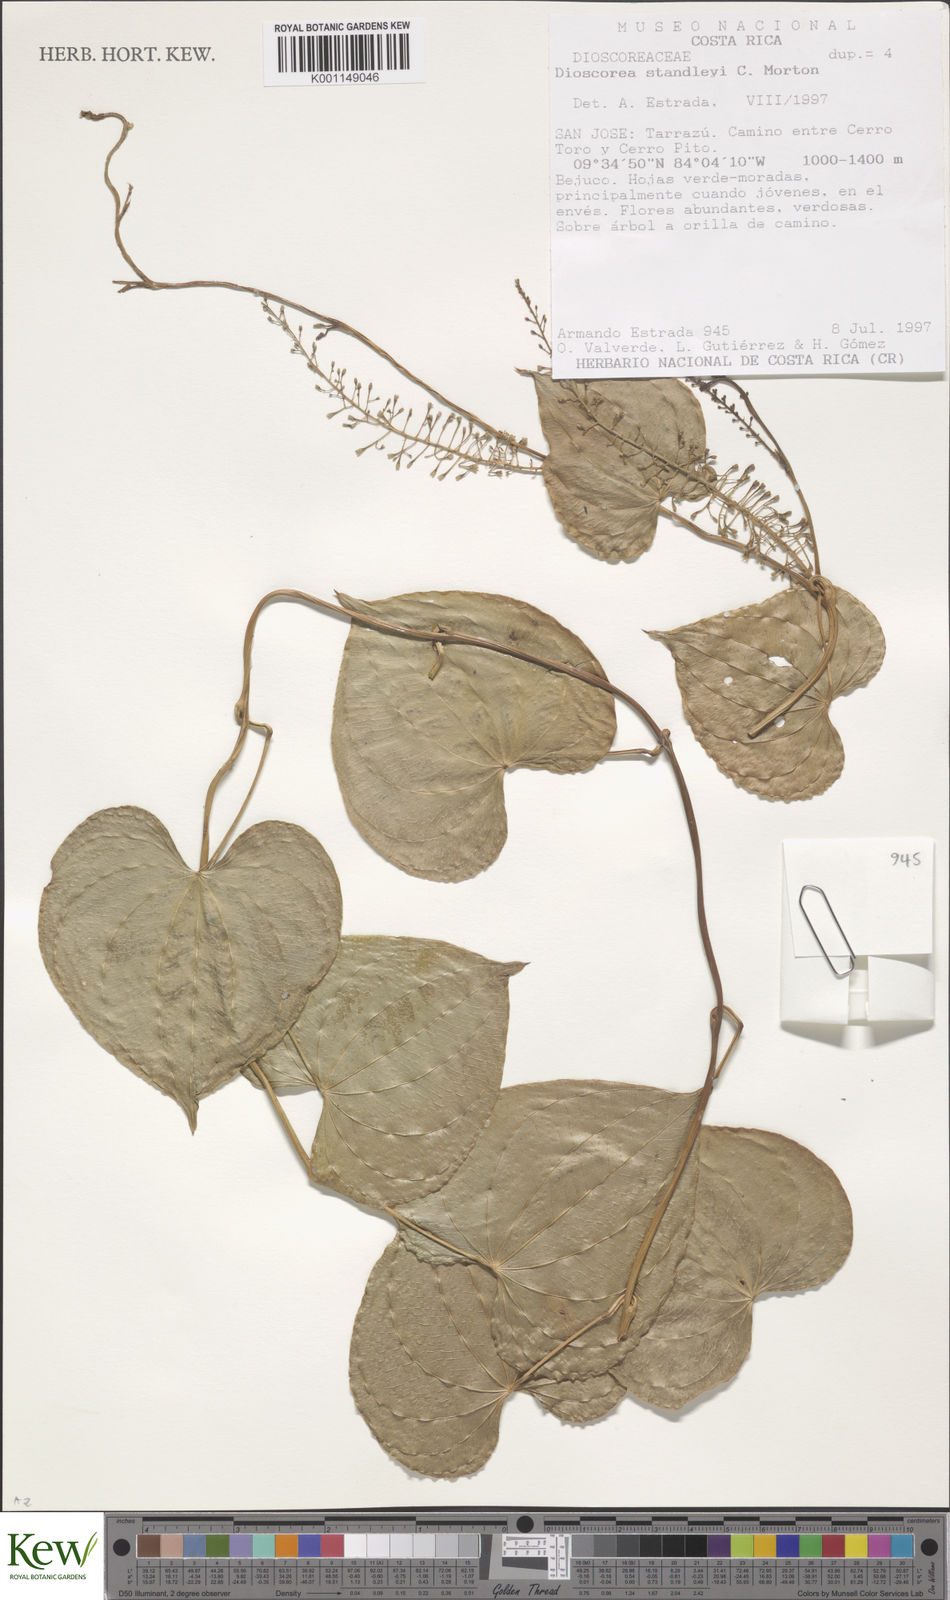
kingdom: Plantae
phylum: Tracheophyta
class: Liliopsida
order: Dioscoreales
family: Dioscoreaceae
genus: Dioscorea
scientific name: Dioscorea standleyi
